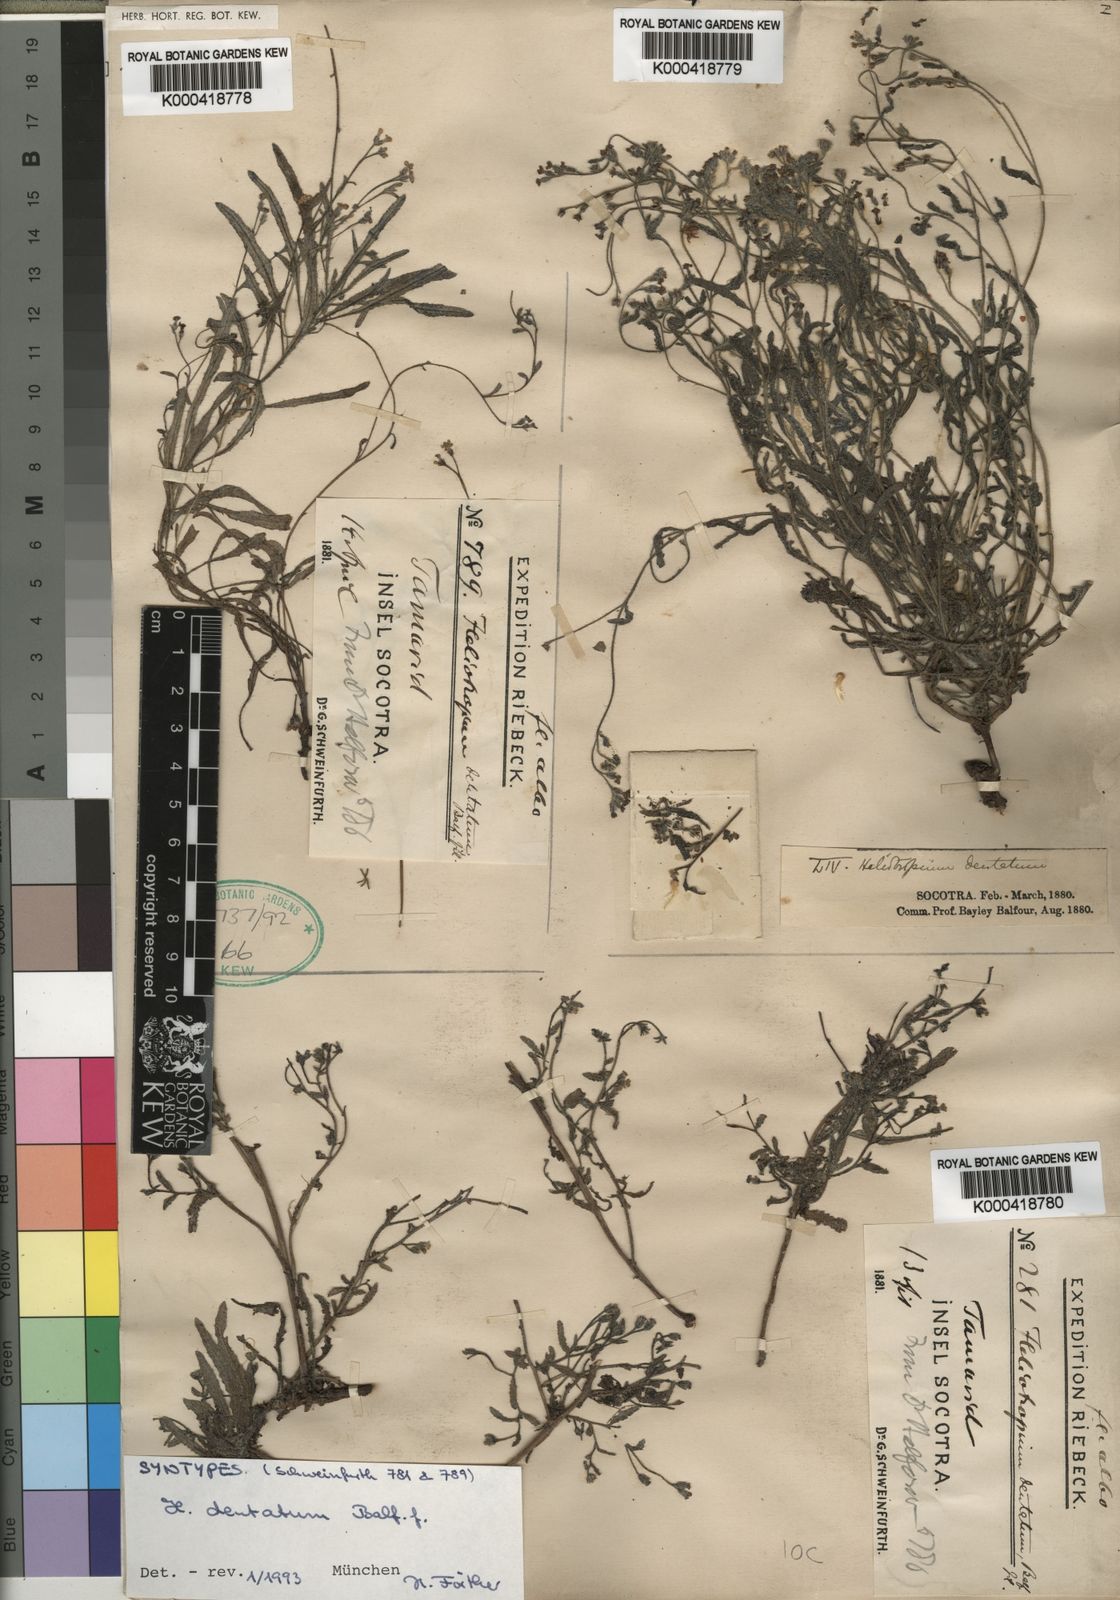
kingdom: Plantae
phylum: Tracheophyta
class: Magnoliopsida
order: Boraginales
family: Heliotropiaceae
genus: Heliotropium
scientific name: Heliotropium dentatum
